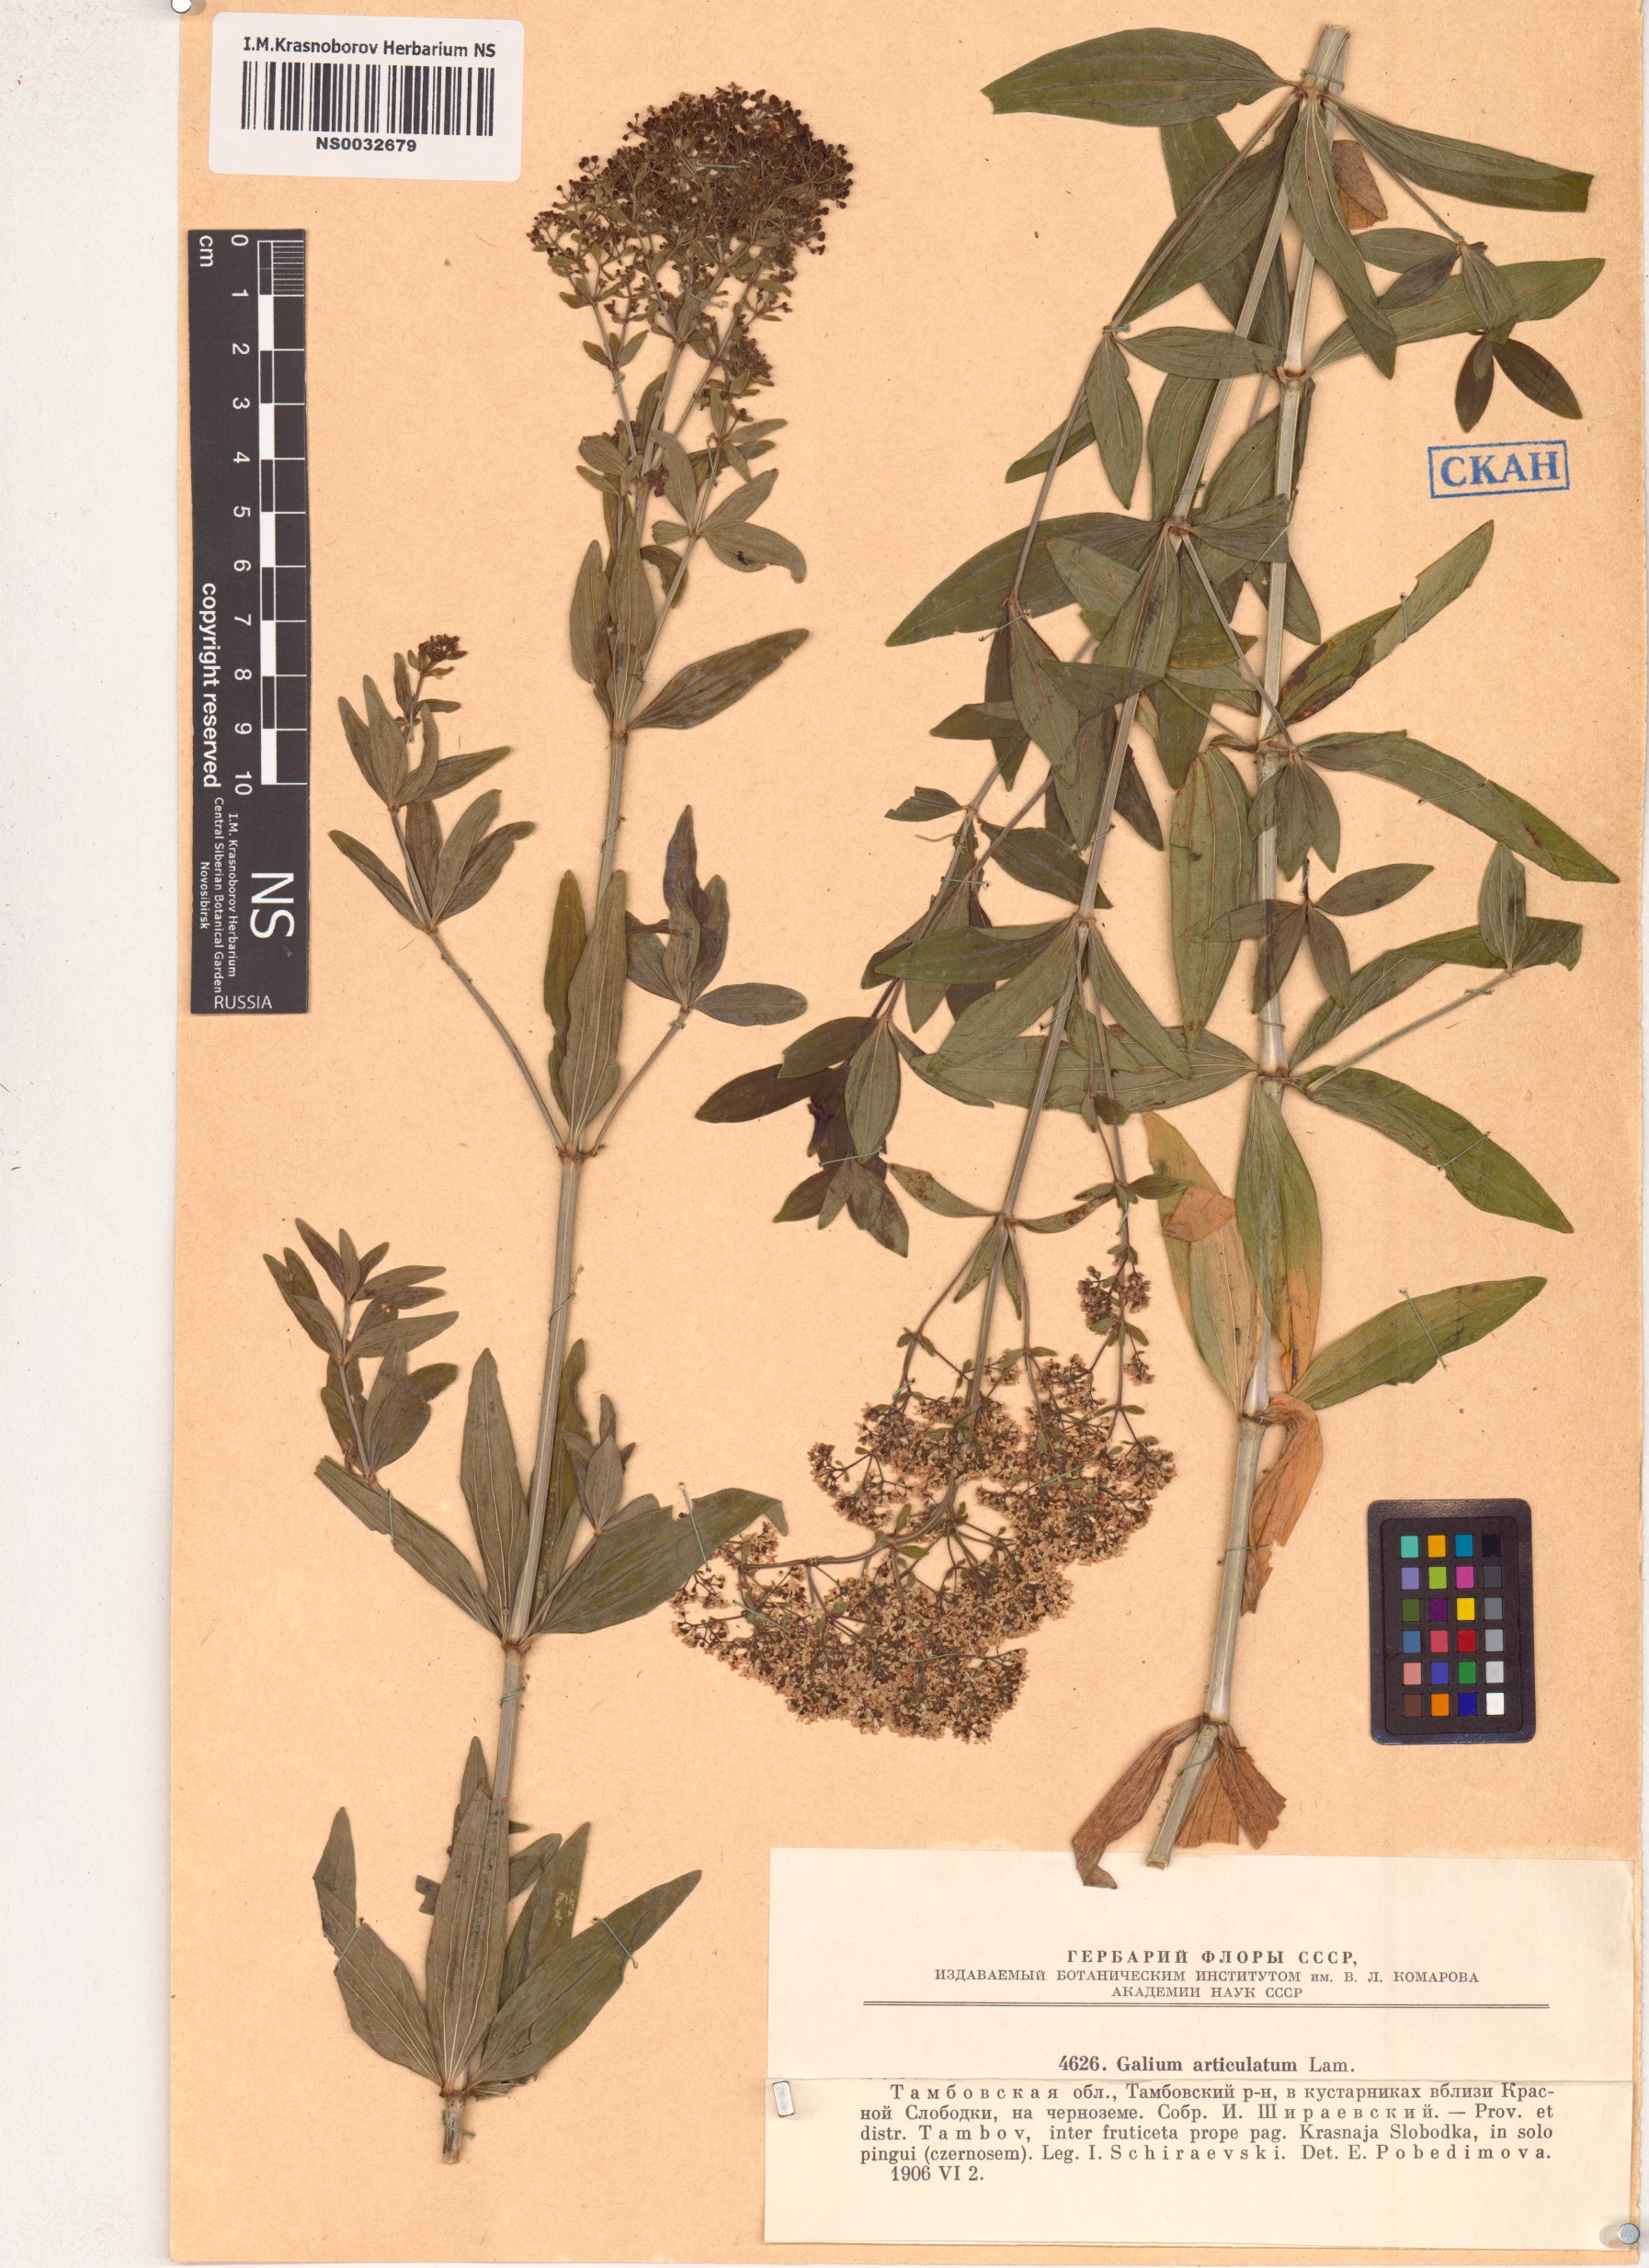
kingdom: Plantae
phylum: Tracheophyta
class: Magnoliopsida
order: Gentianales
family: Rubiaceae
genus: Galium
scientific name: Galium rubioides
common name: European bedstraw
